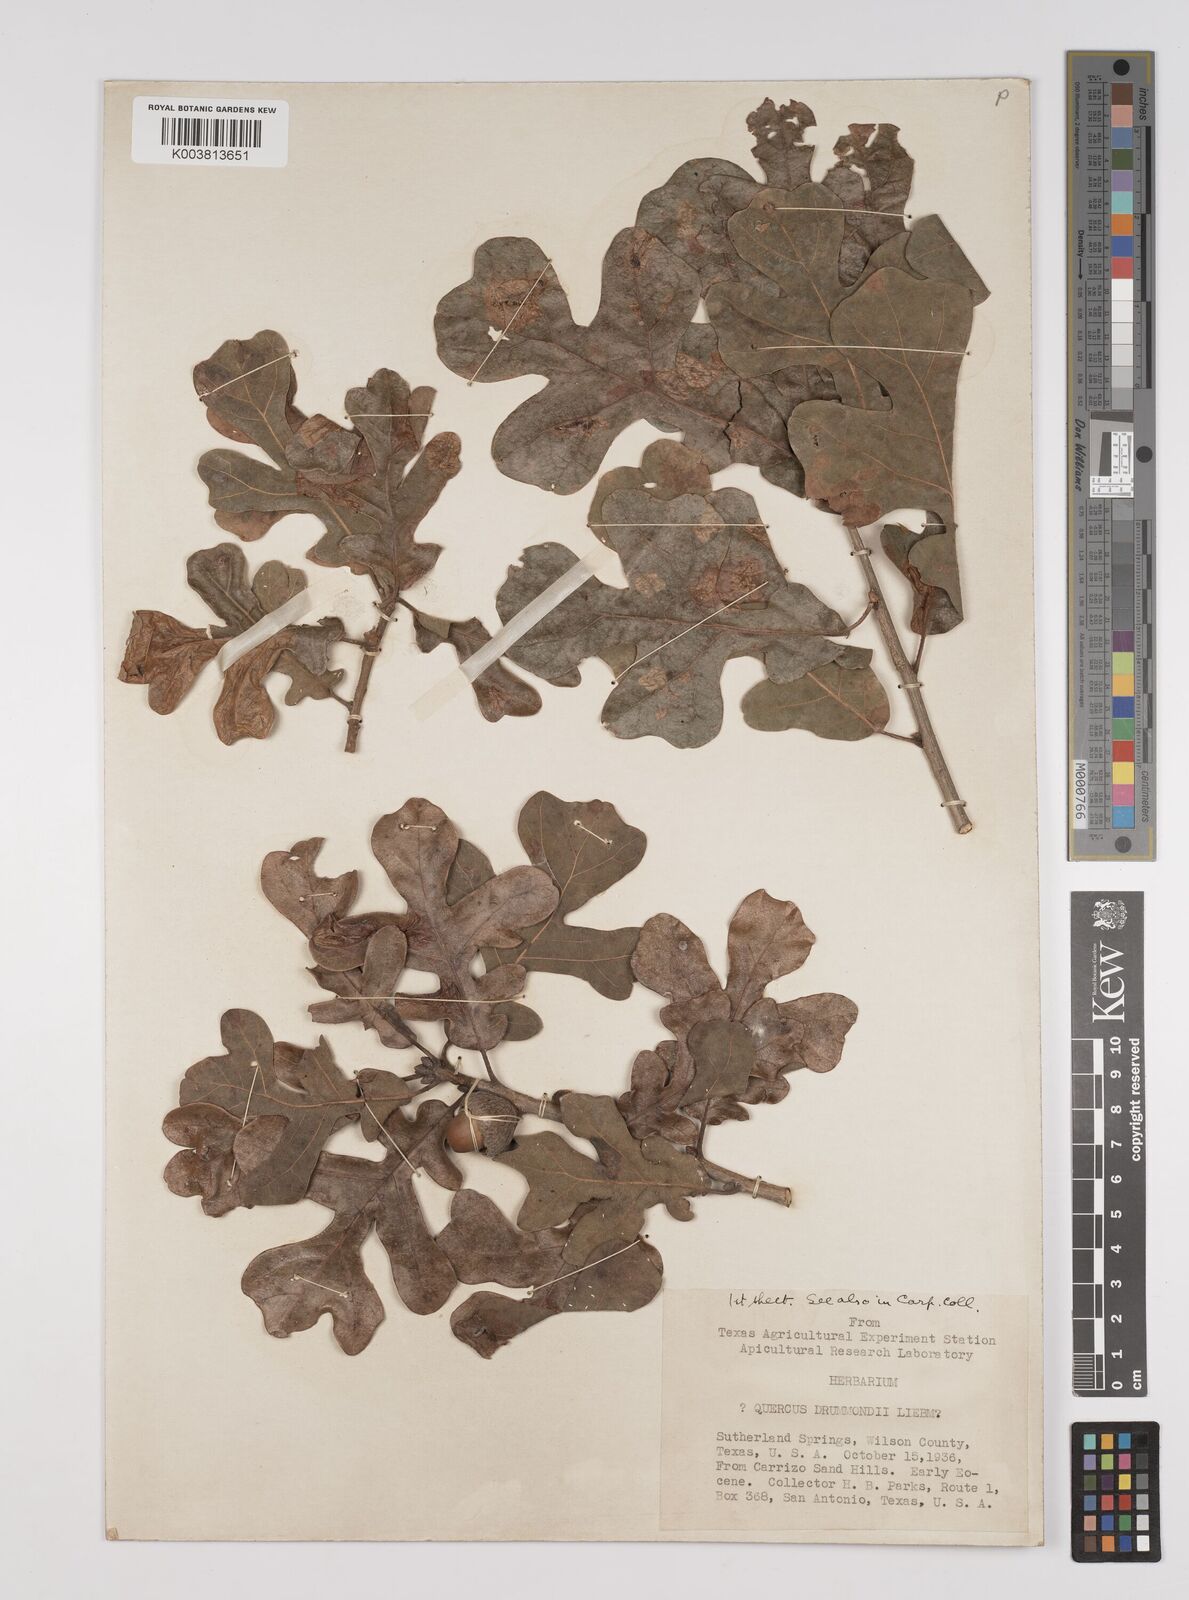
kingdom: Plantae
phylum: Tracheophyta
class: Magnoliopsida
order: Fagales
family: Fagaceae
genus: Quercus
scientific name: Quercus stellata
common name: Post oak
